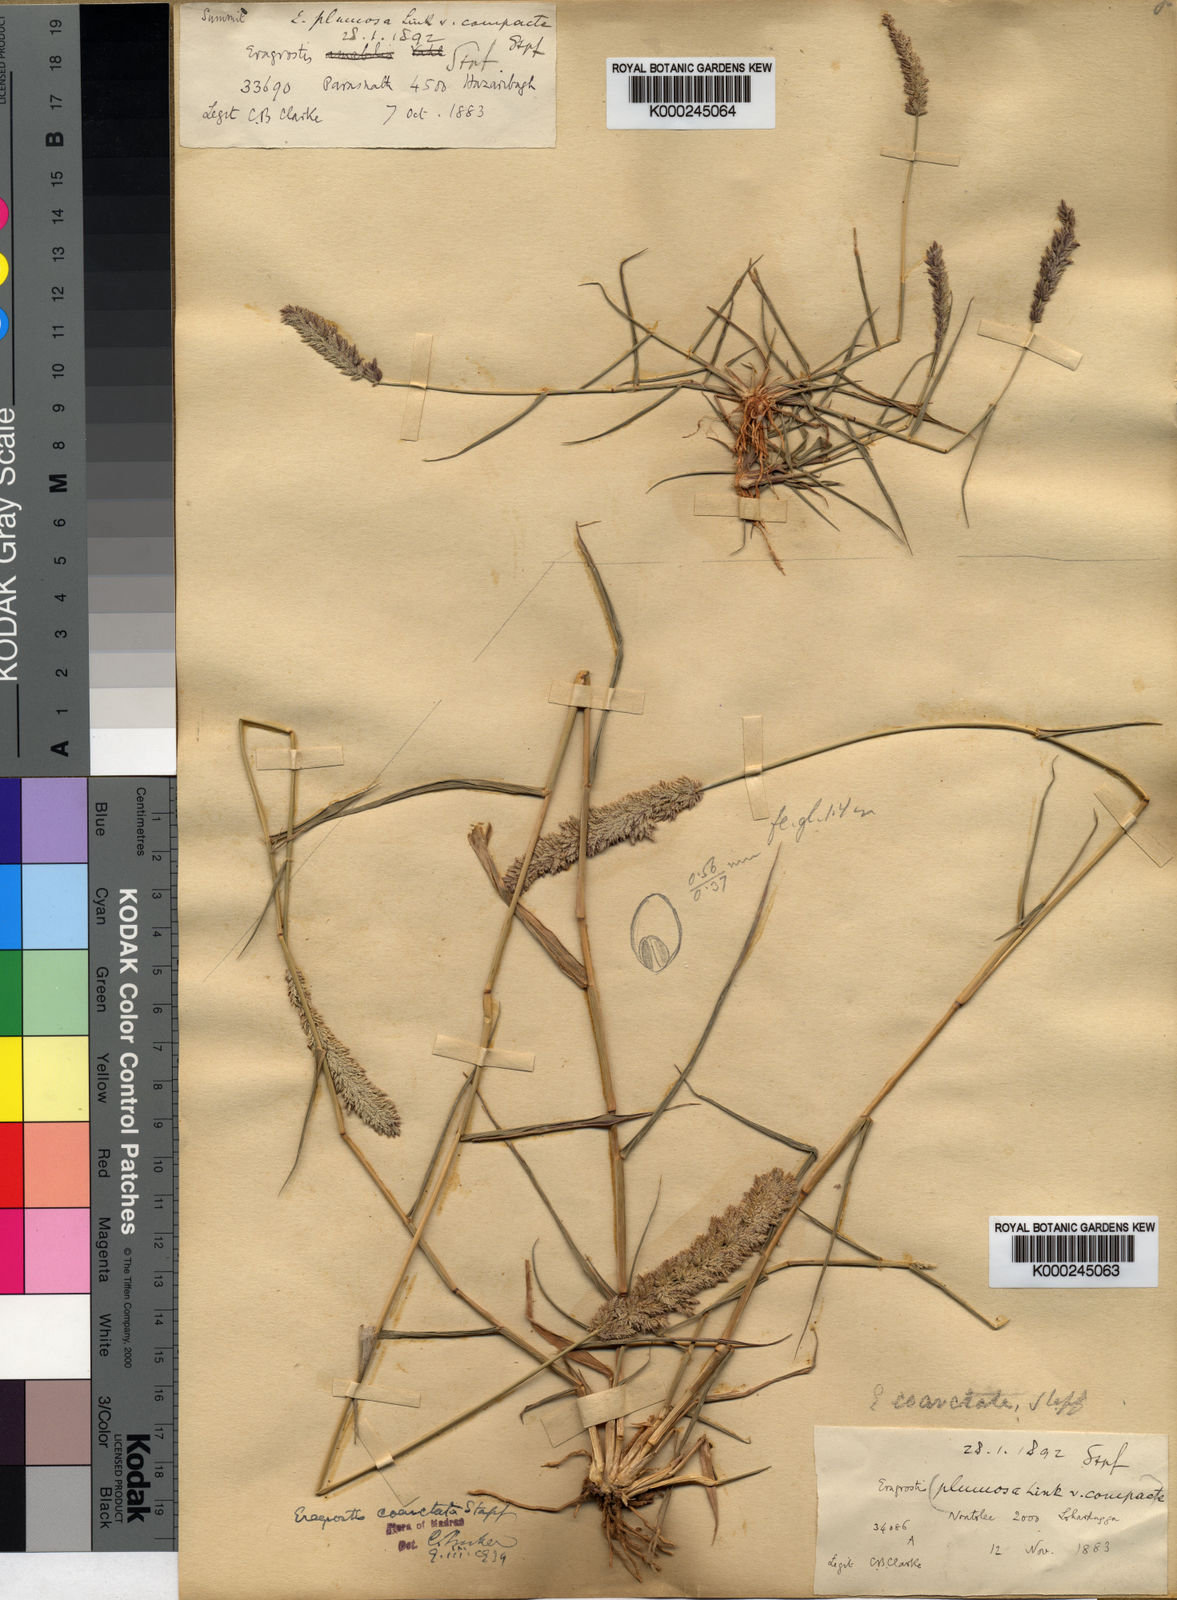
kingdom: Plantae
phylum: Tracheophyta
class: Liliopsida
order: Poales
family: Poaceae
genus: Eragrostis
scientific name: Eragrostis coarctata
